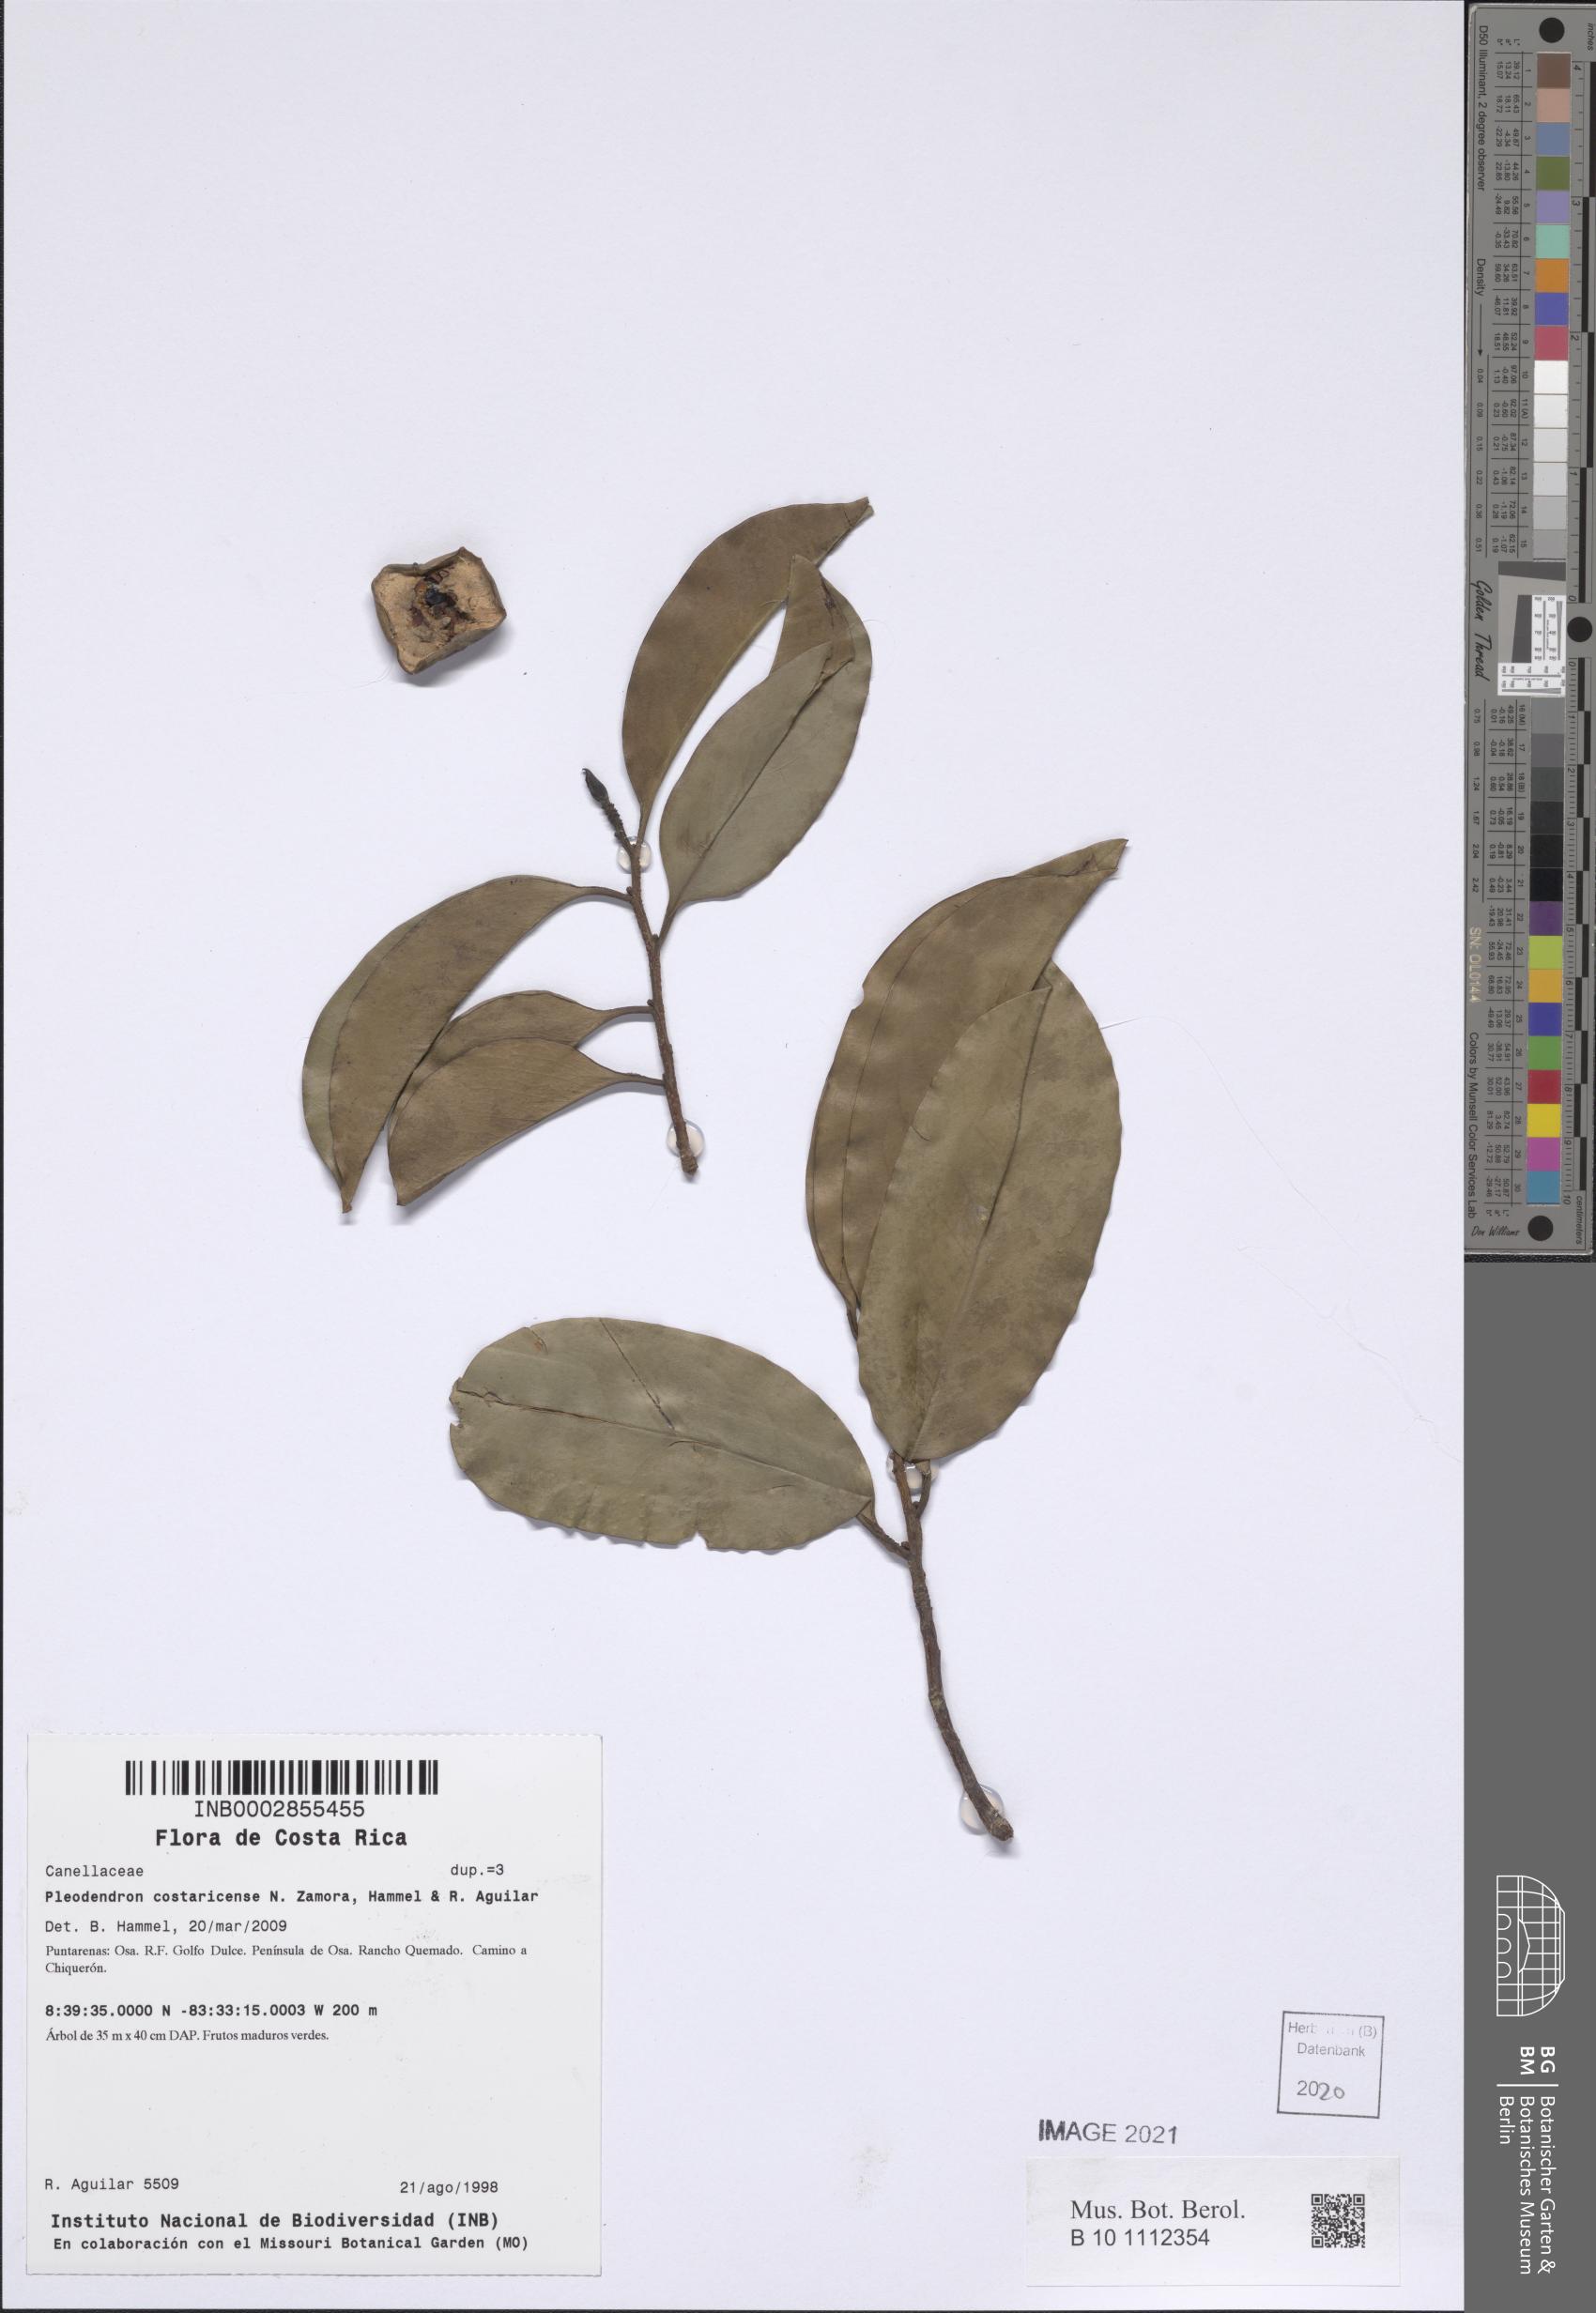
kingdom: Plantae
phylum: Tracheophyta
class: Magnoliopsida
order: Canellales
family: Canellaceae
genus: Pleodendron
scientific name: Pleodendron costaricense
